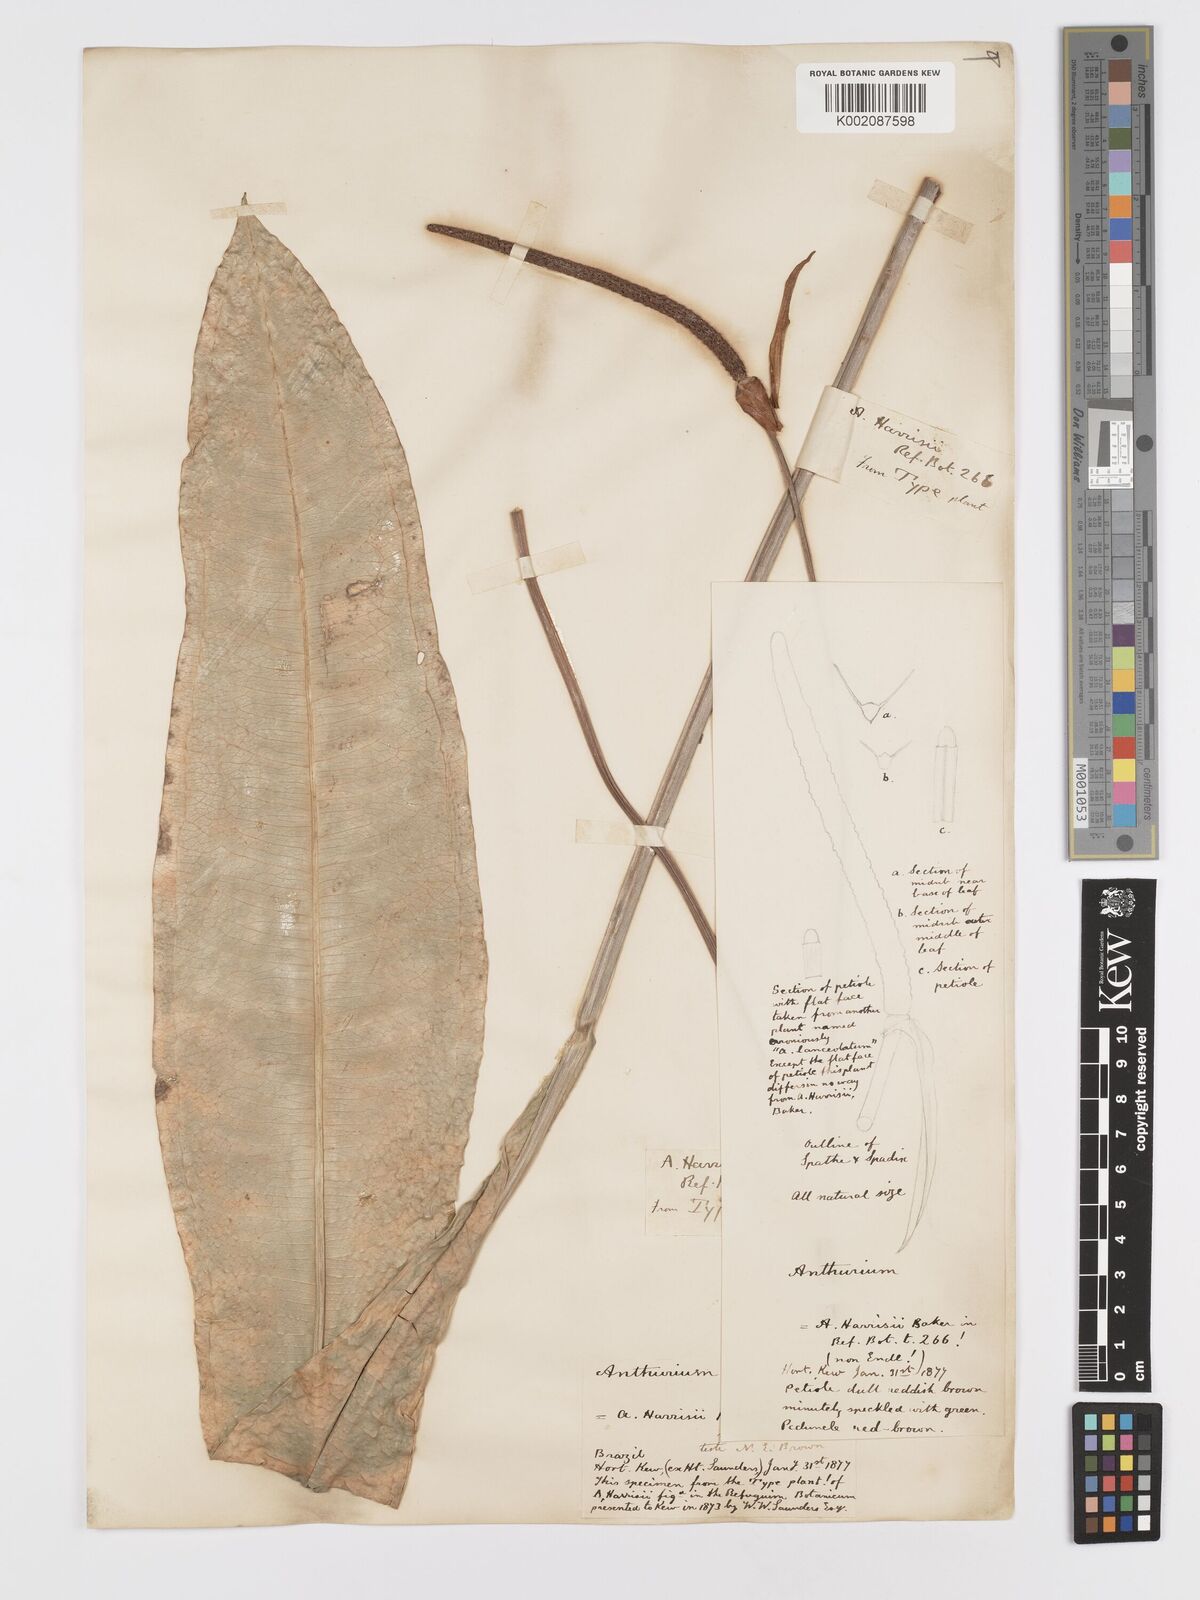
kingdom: Plantae
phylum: Tracheophyta
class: Liliopsida
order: Alismatales
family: Araceae
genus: Anthurium
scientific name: Anthurium harrisii
